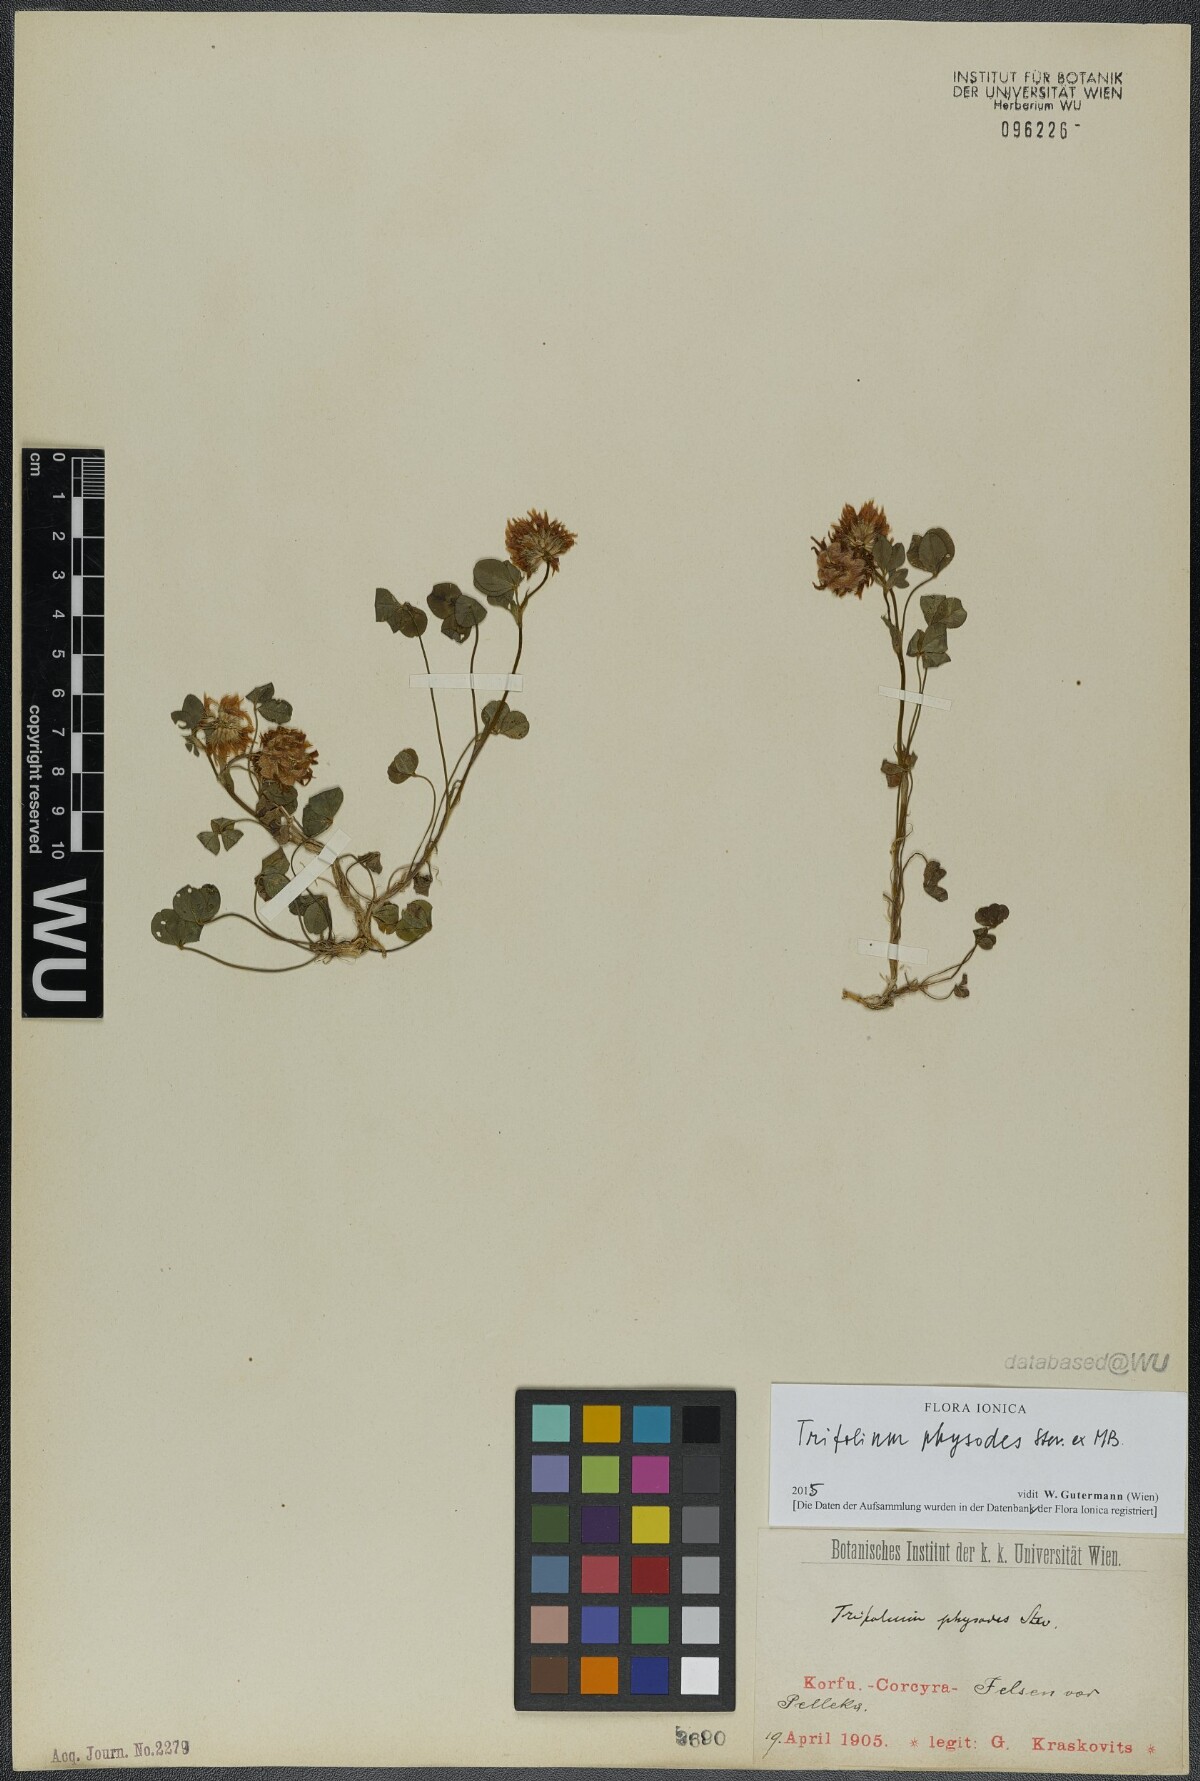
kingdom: Plantae
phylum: Tracheophyta
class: Magnoliopsida
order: Fabales
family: Fabaceae
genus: Trifolium
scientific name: Trifolium physodes
